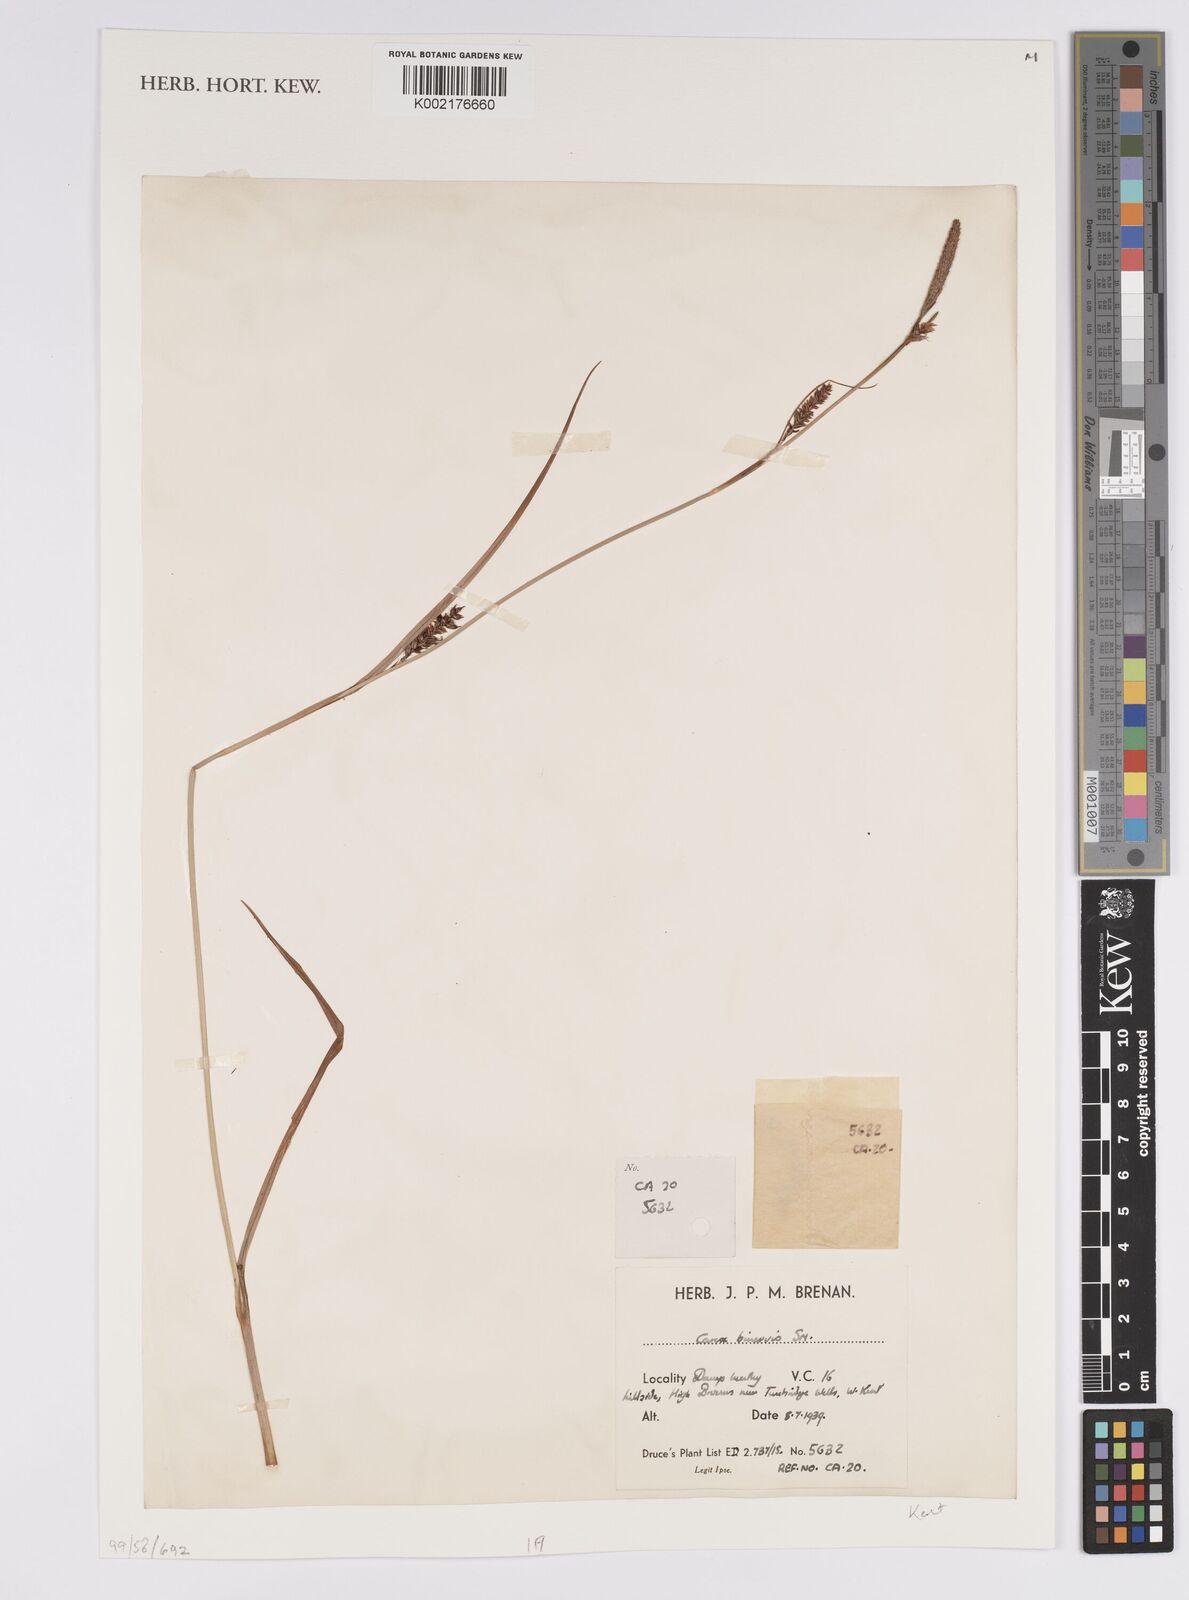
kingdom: Plantae
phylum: Tracheophyta
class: Liliopsida
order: Poales
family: Cyperaceae
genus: Carex
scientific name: Carex binervis
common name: Green-ribbed sedge
